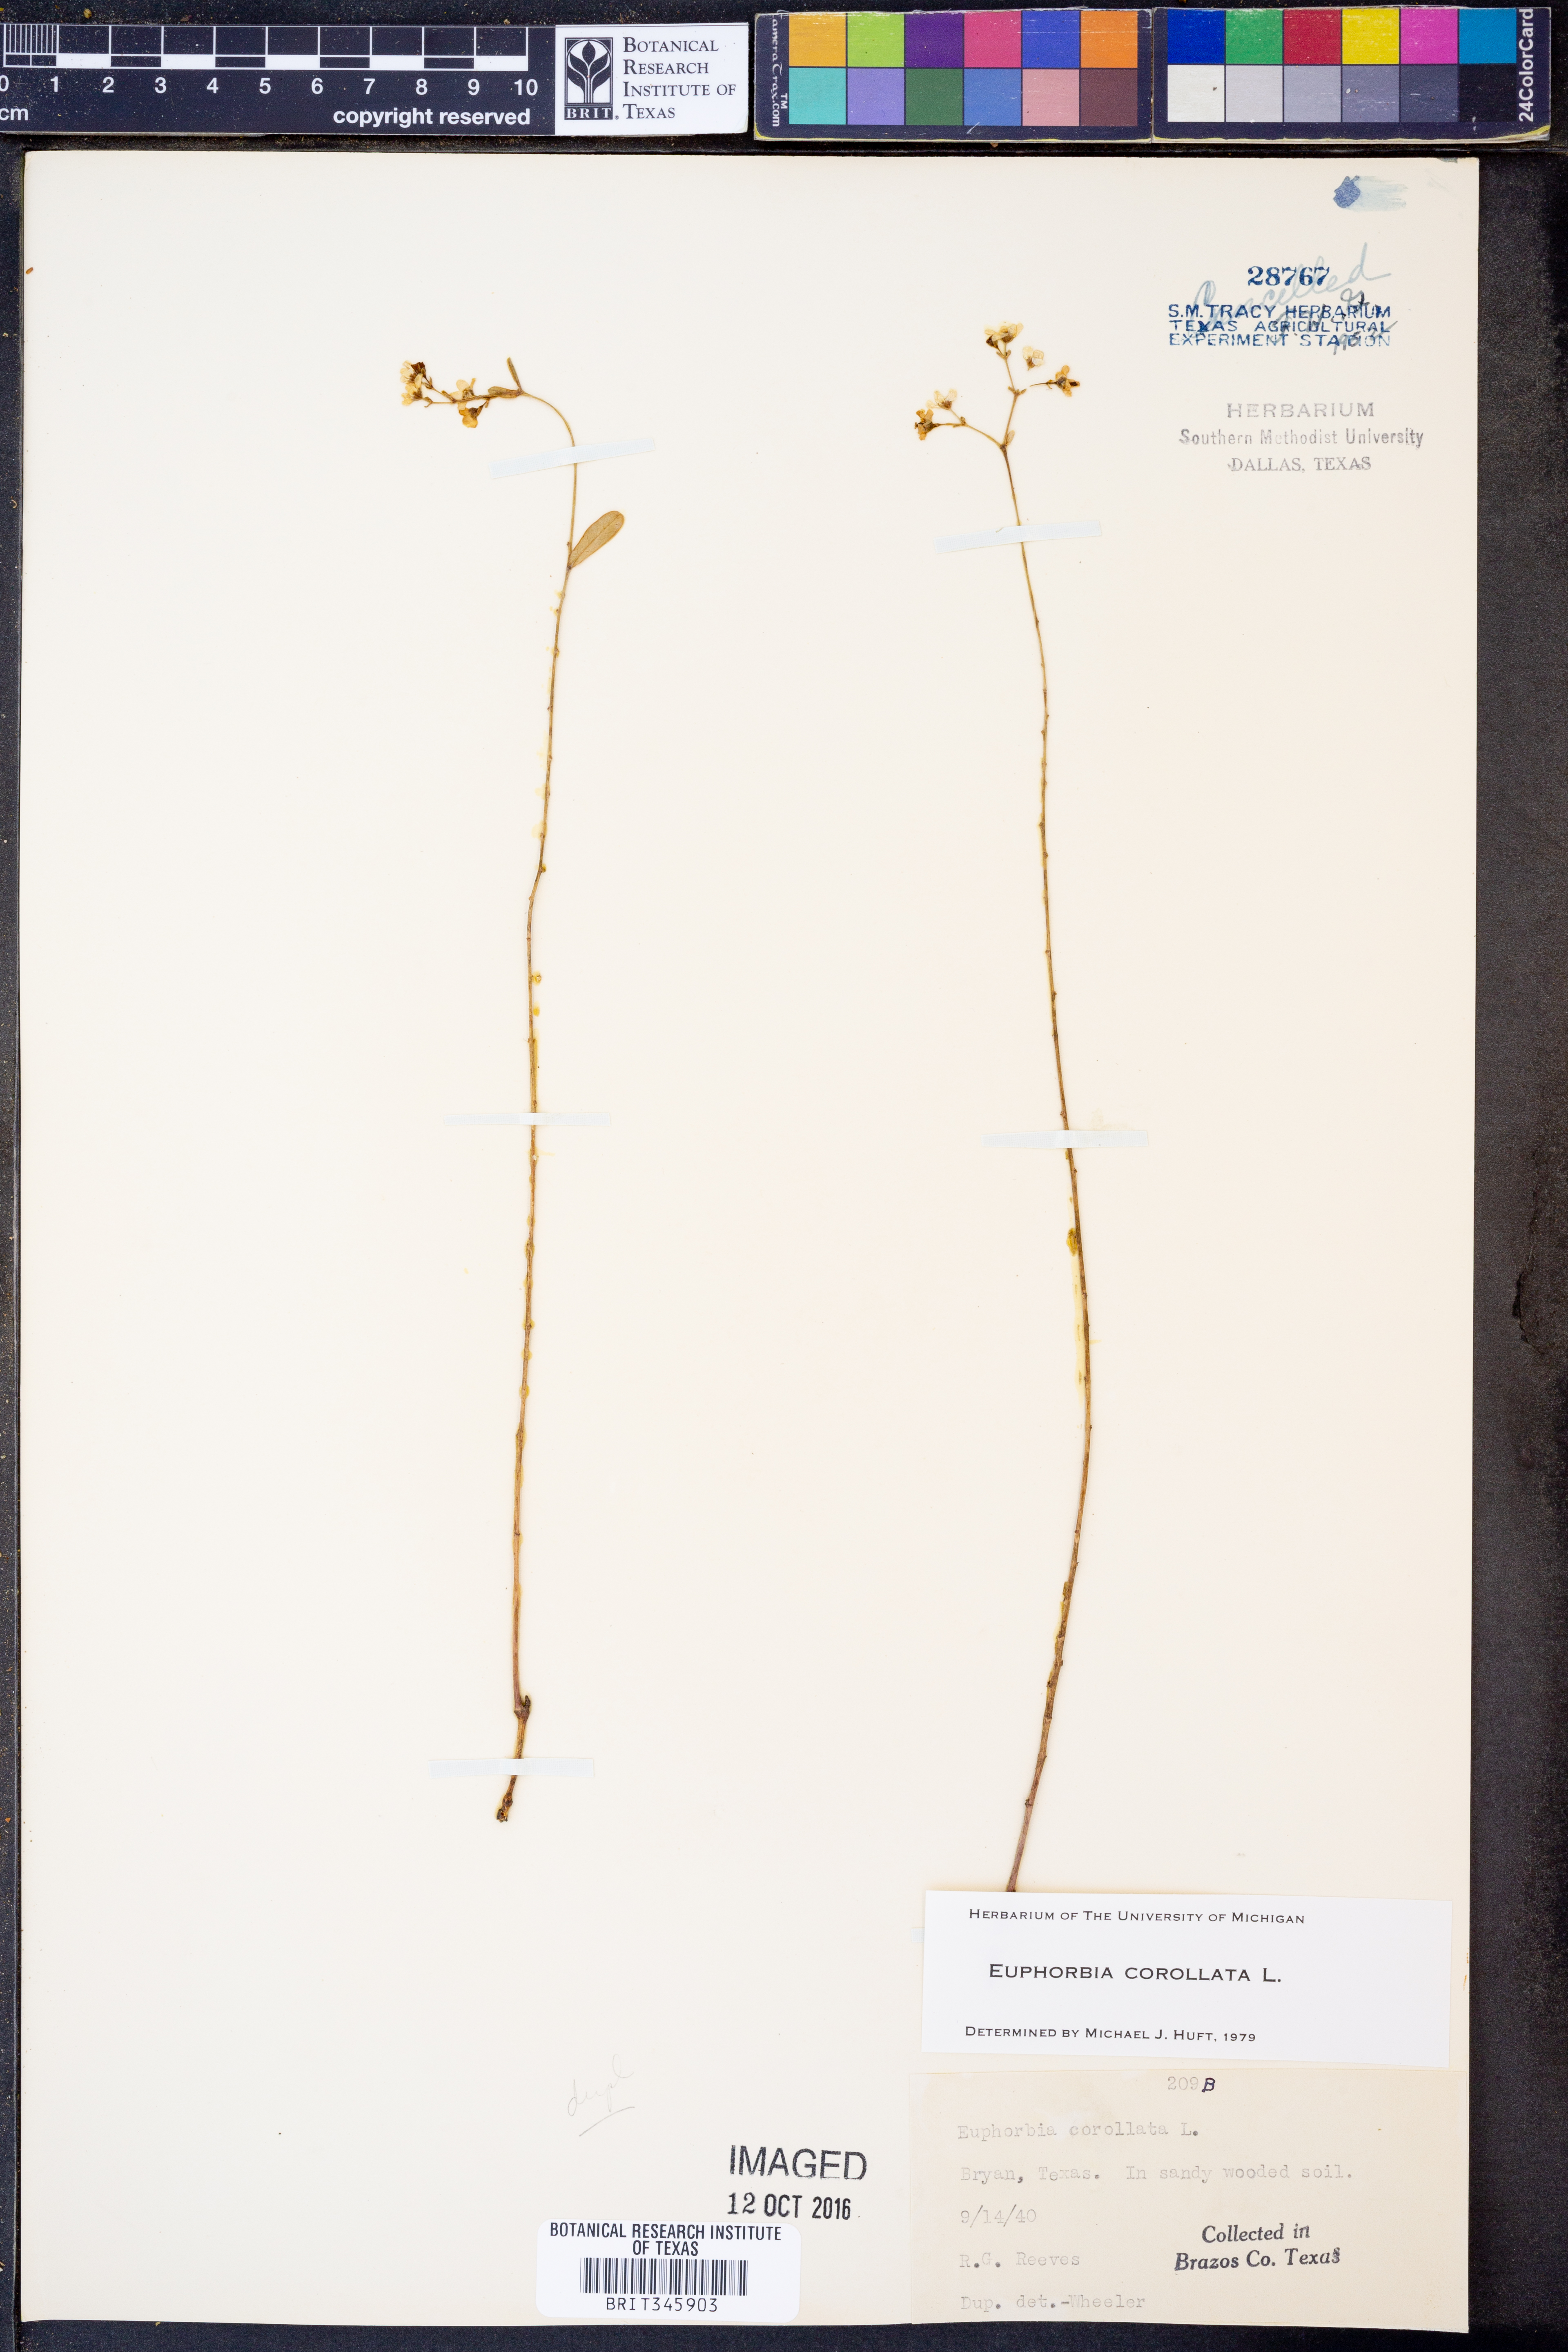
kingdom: Plantae
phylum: Tracheophyta
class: Magnoliopsida
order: Malpighiales
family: Euphorbiaceae
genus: Euphorbia
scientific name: Euphorbia corollata
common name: Flowering spurge
